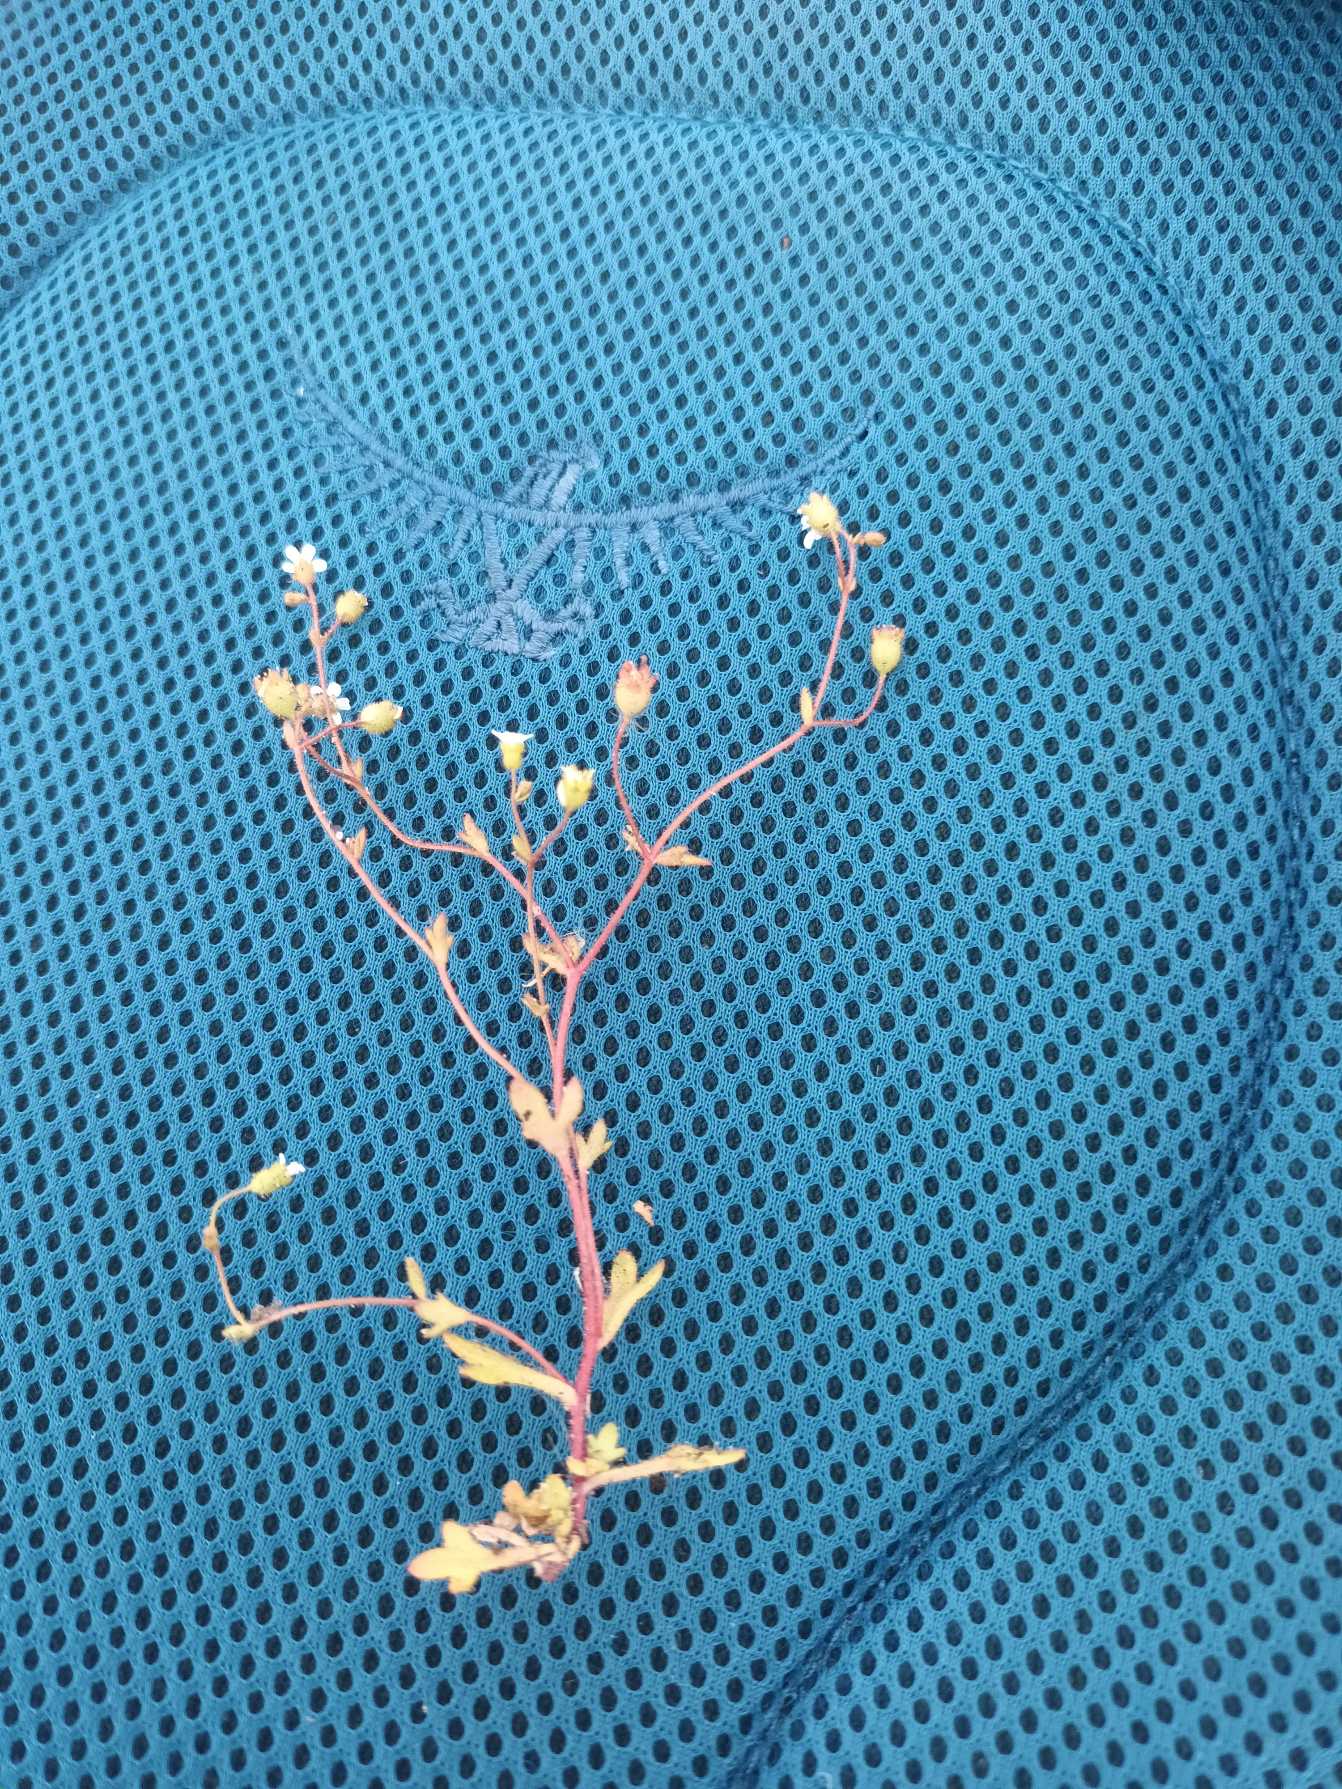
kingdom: Plantae
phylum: Tracheophyta
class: Magnoliopsida
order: Saxifragales
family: Saxifragaceae
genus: Saxifraga
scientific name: Saxifraga tridactylites
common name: Trekløft-stenbræk
